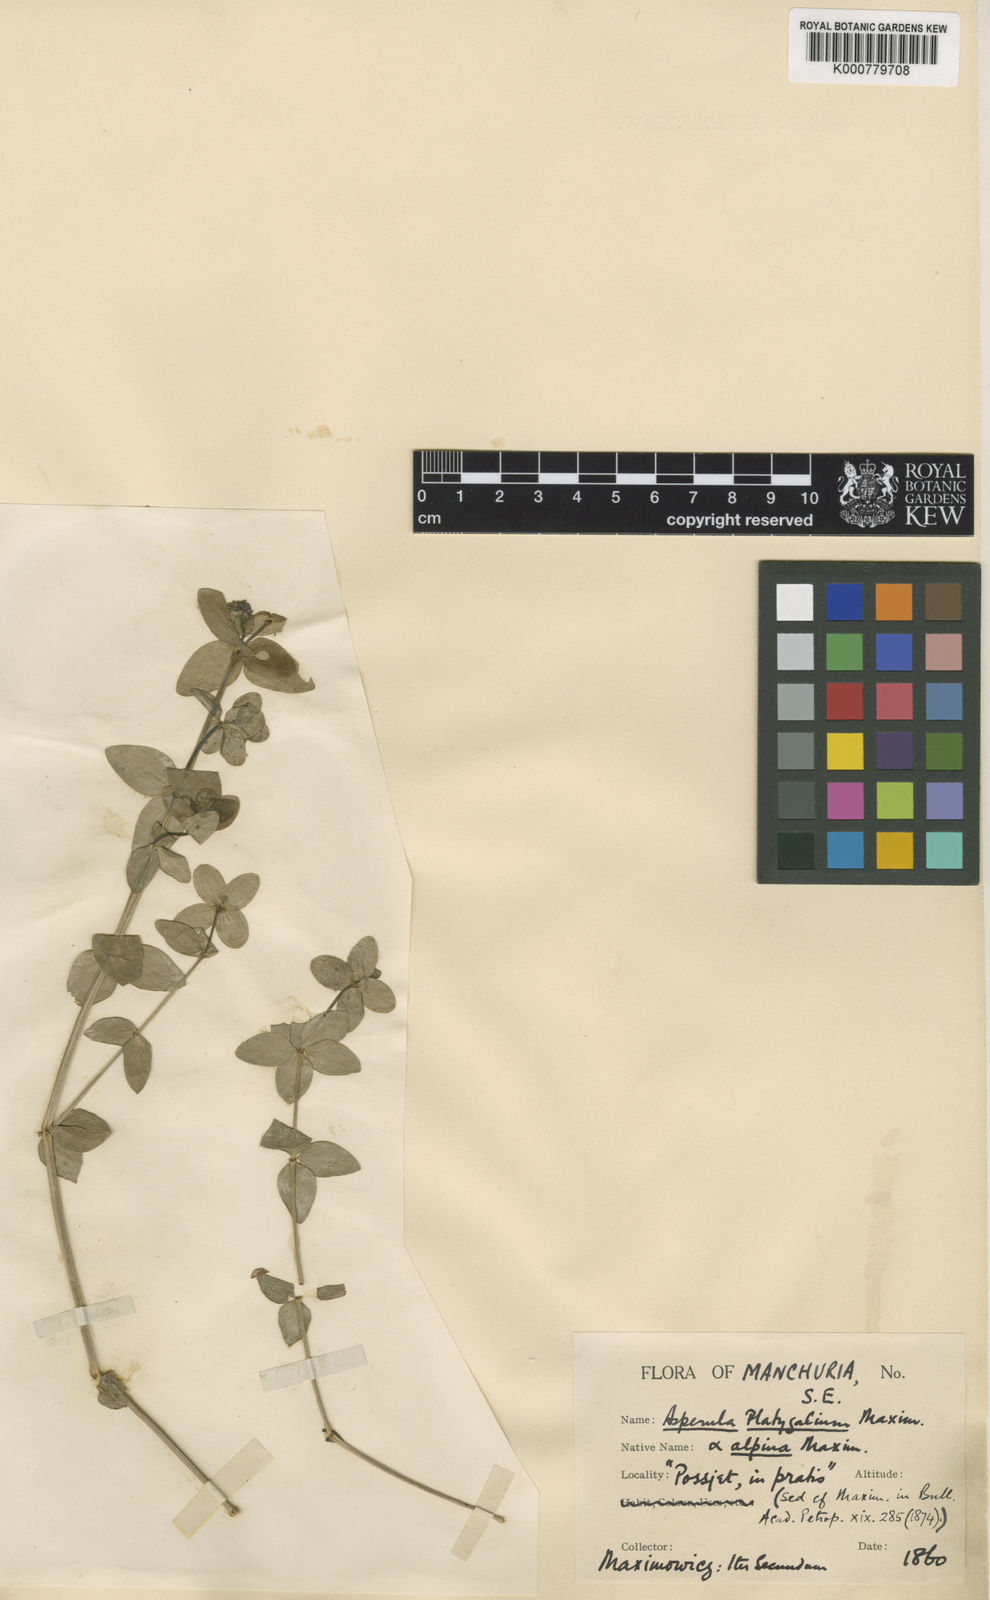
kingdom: Plantae
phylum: Tracheophyta
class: Magnoliopsida
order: Gentianales
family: Rubiaceae
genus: Galium
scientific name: Galium platygalium
